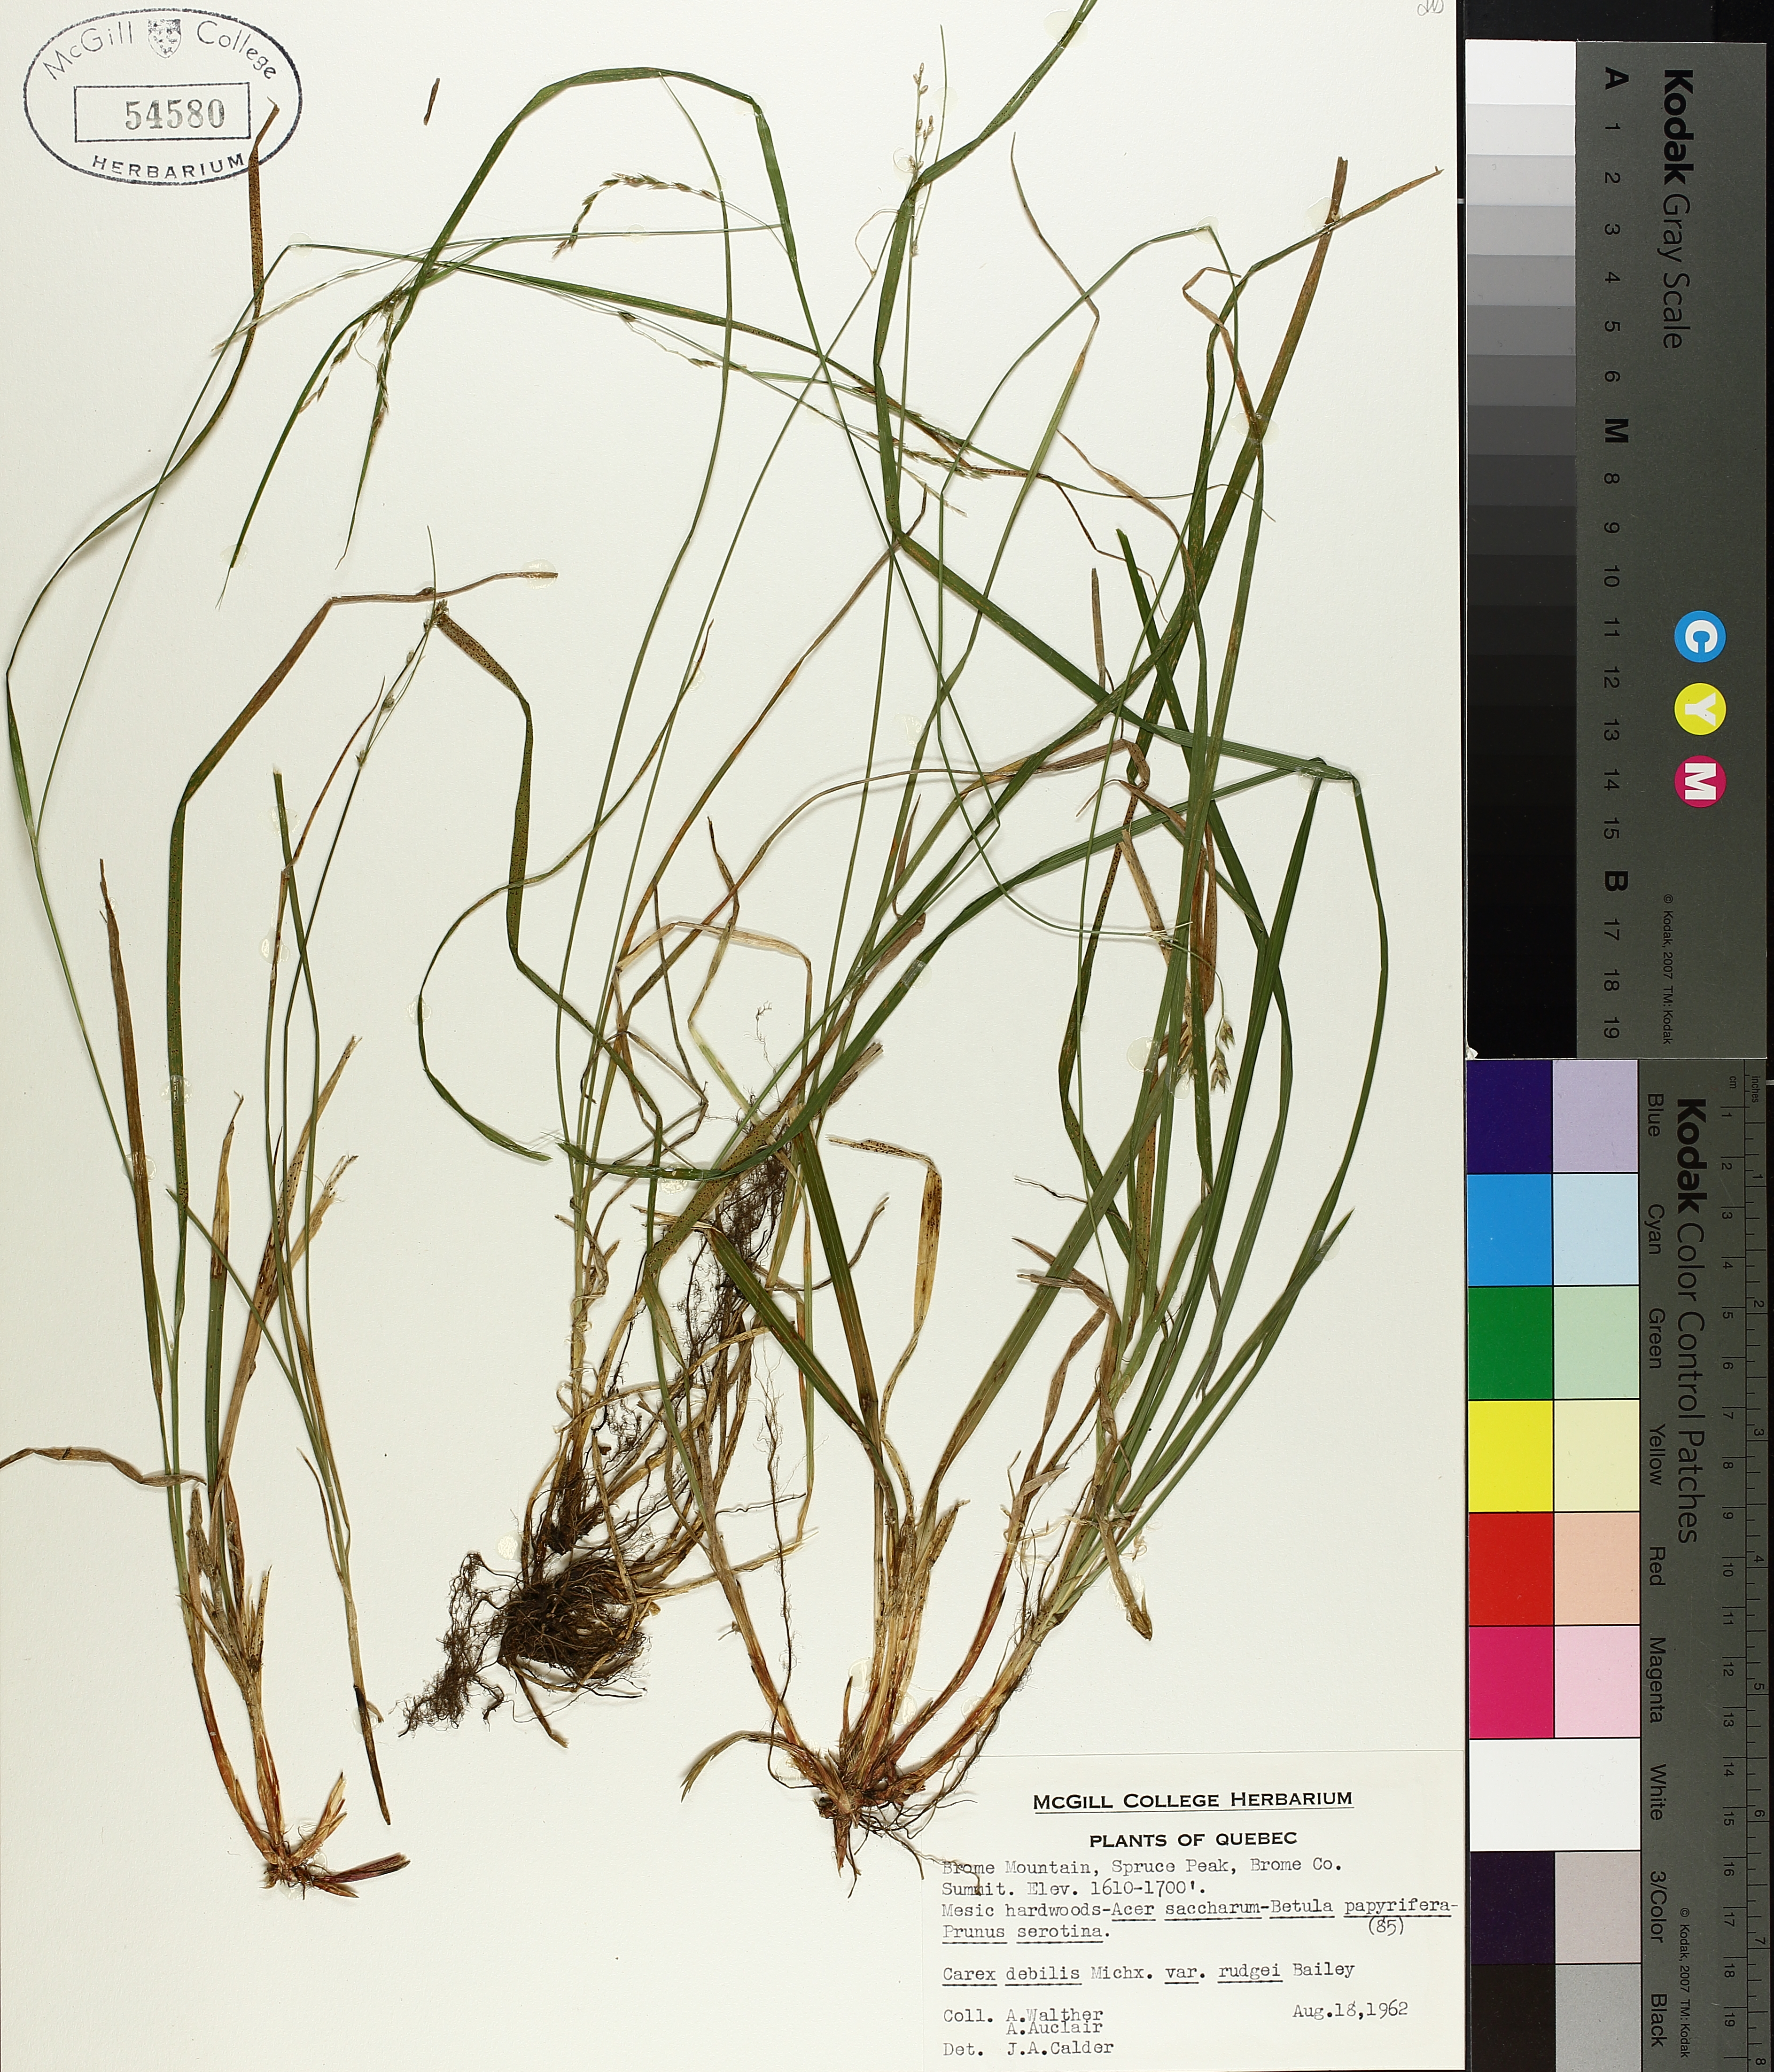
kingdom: Plantae
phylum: Tracheophyta
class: Liliopsida
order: Poales
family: Cyperaceae
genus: Carex
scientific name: Carex debilis
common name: White-edge sedge
